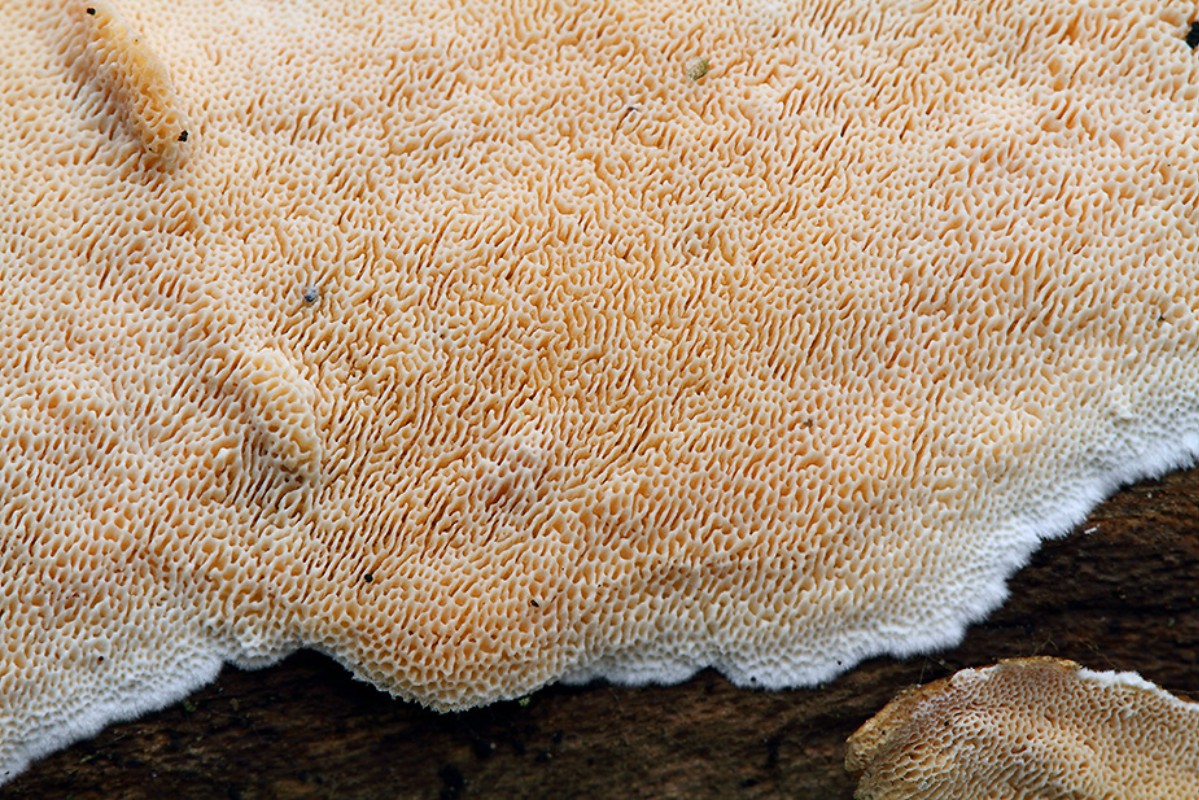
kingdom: Fungi
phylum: Basidiomycota
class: Agaricomycetes
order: Polyporales
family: Steccherinaceae
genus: Junghuhnia
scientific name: Junghuhnia nitida
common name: almindelig skønporesvamp
